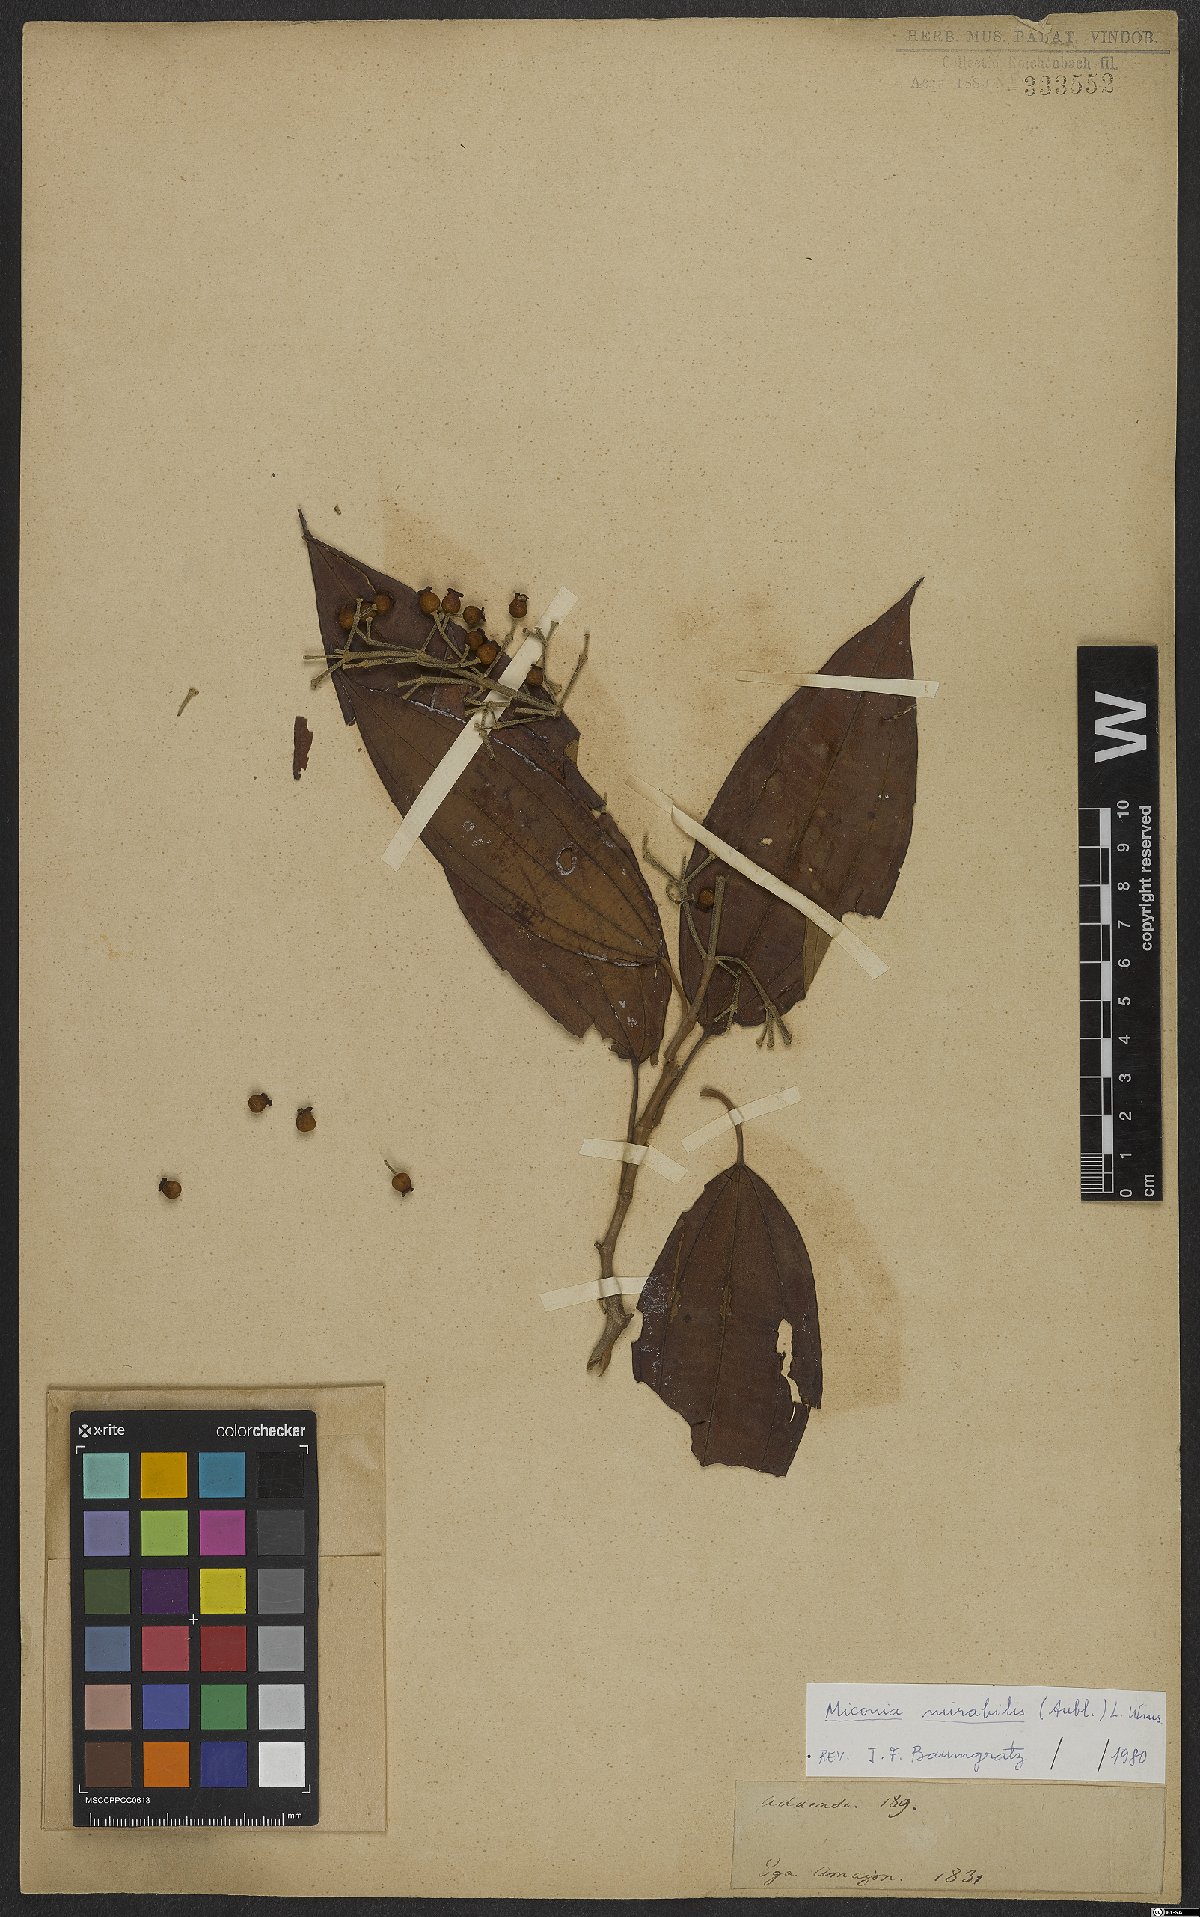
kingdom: Plantae
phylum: Tracheophyta
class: Magnoliopsida
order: Myrtales
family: Melastomataceae
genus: Miconia
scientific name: Miconia mirabilis
